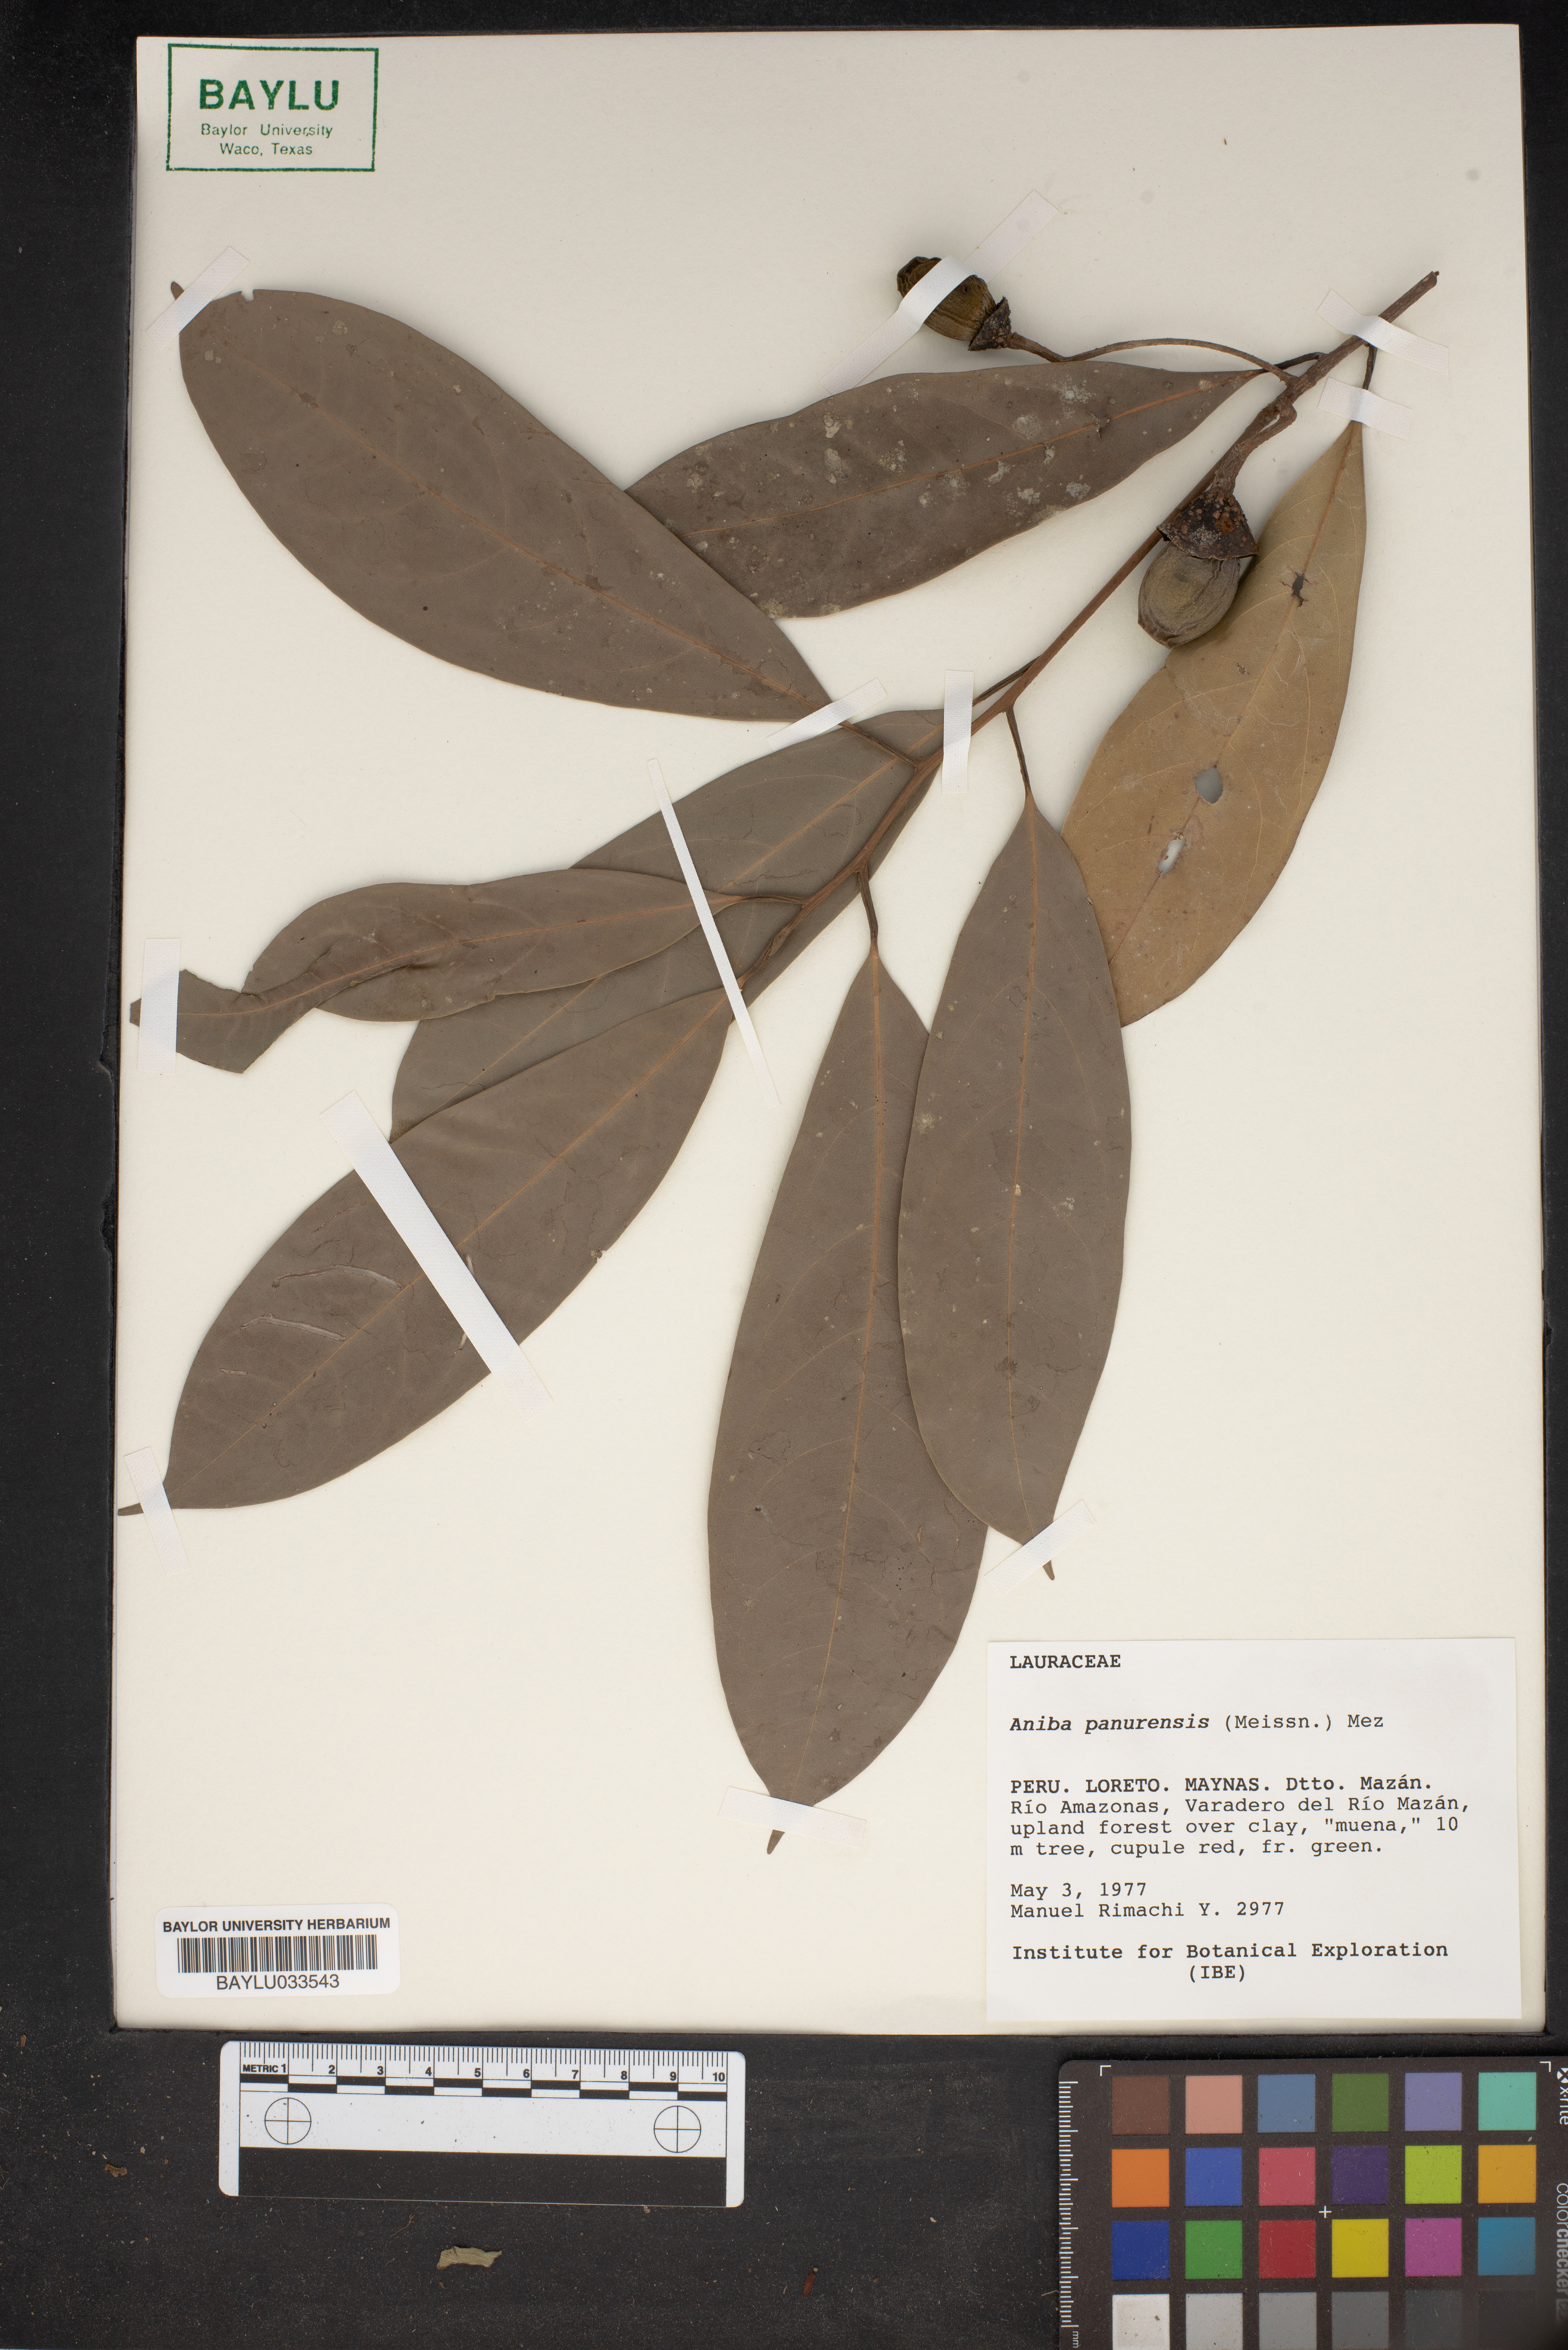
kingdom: Plantae
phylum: Tracheophyta
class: Magnoliopsida
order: Laurales
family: Lauraceae
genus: Aniba
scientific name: Aniba panurensis
